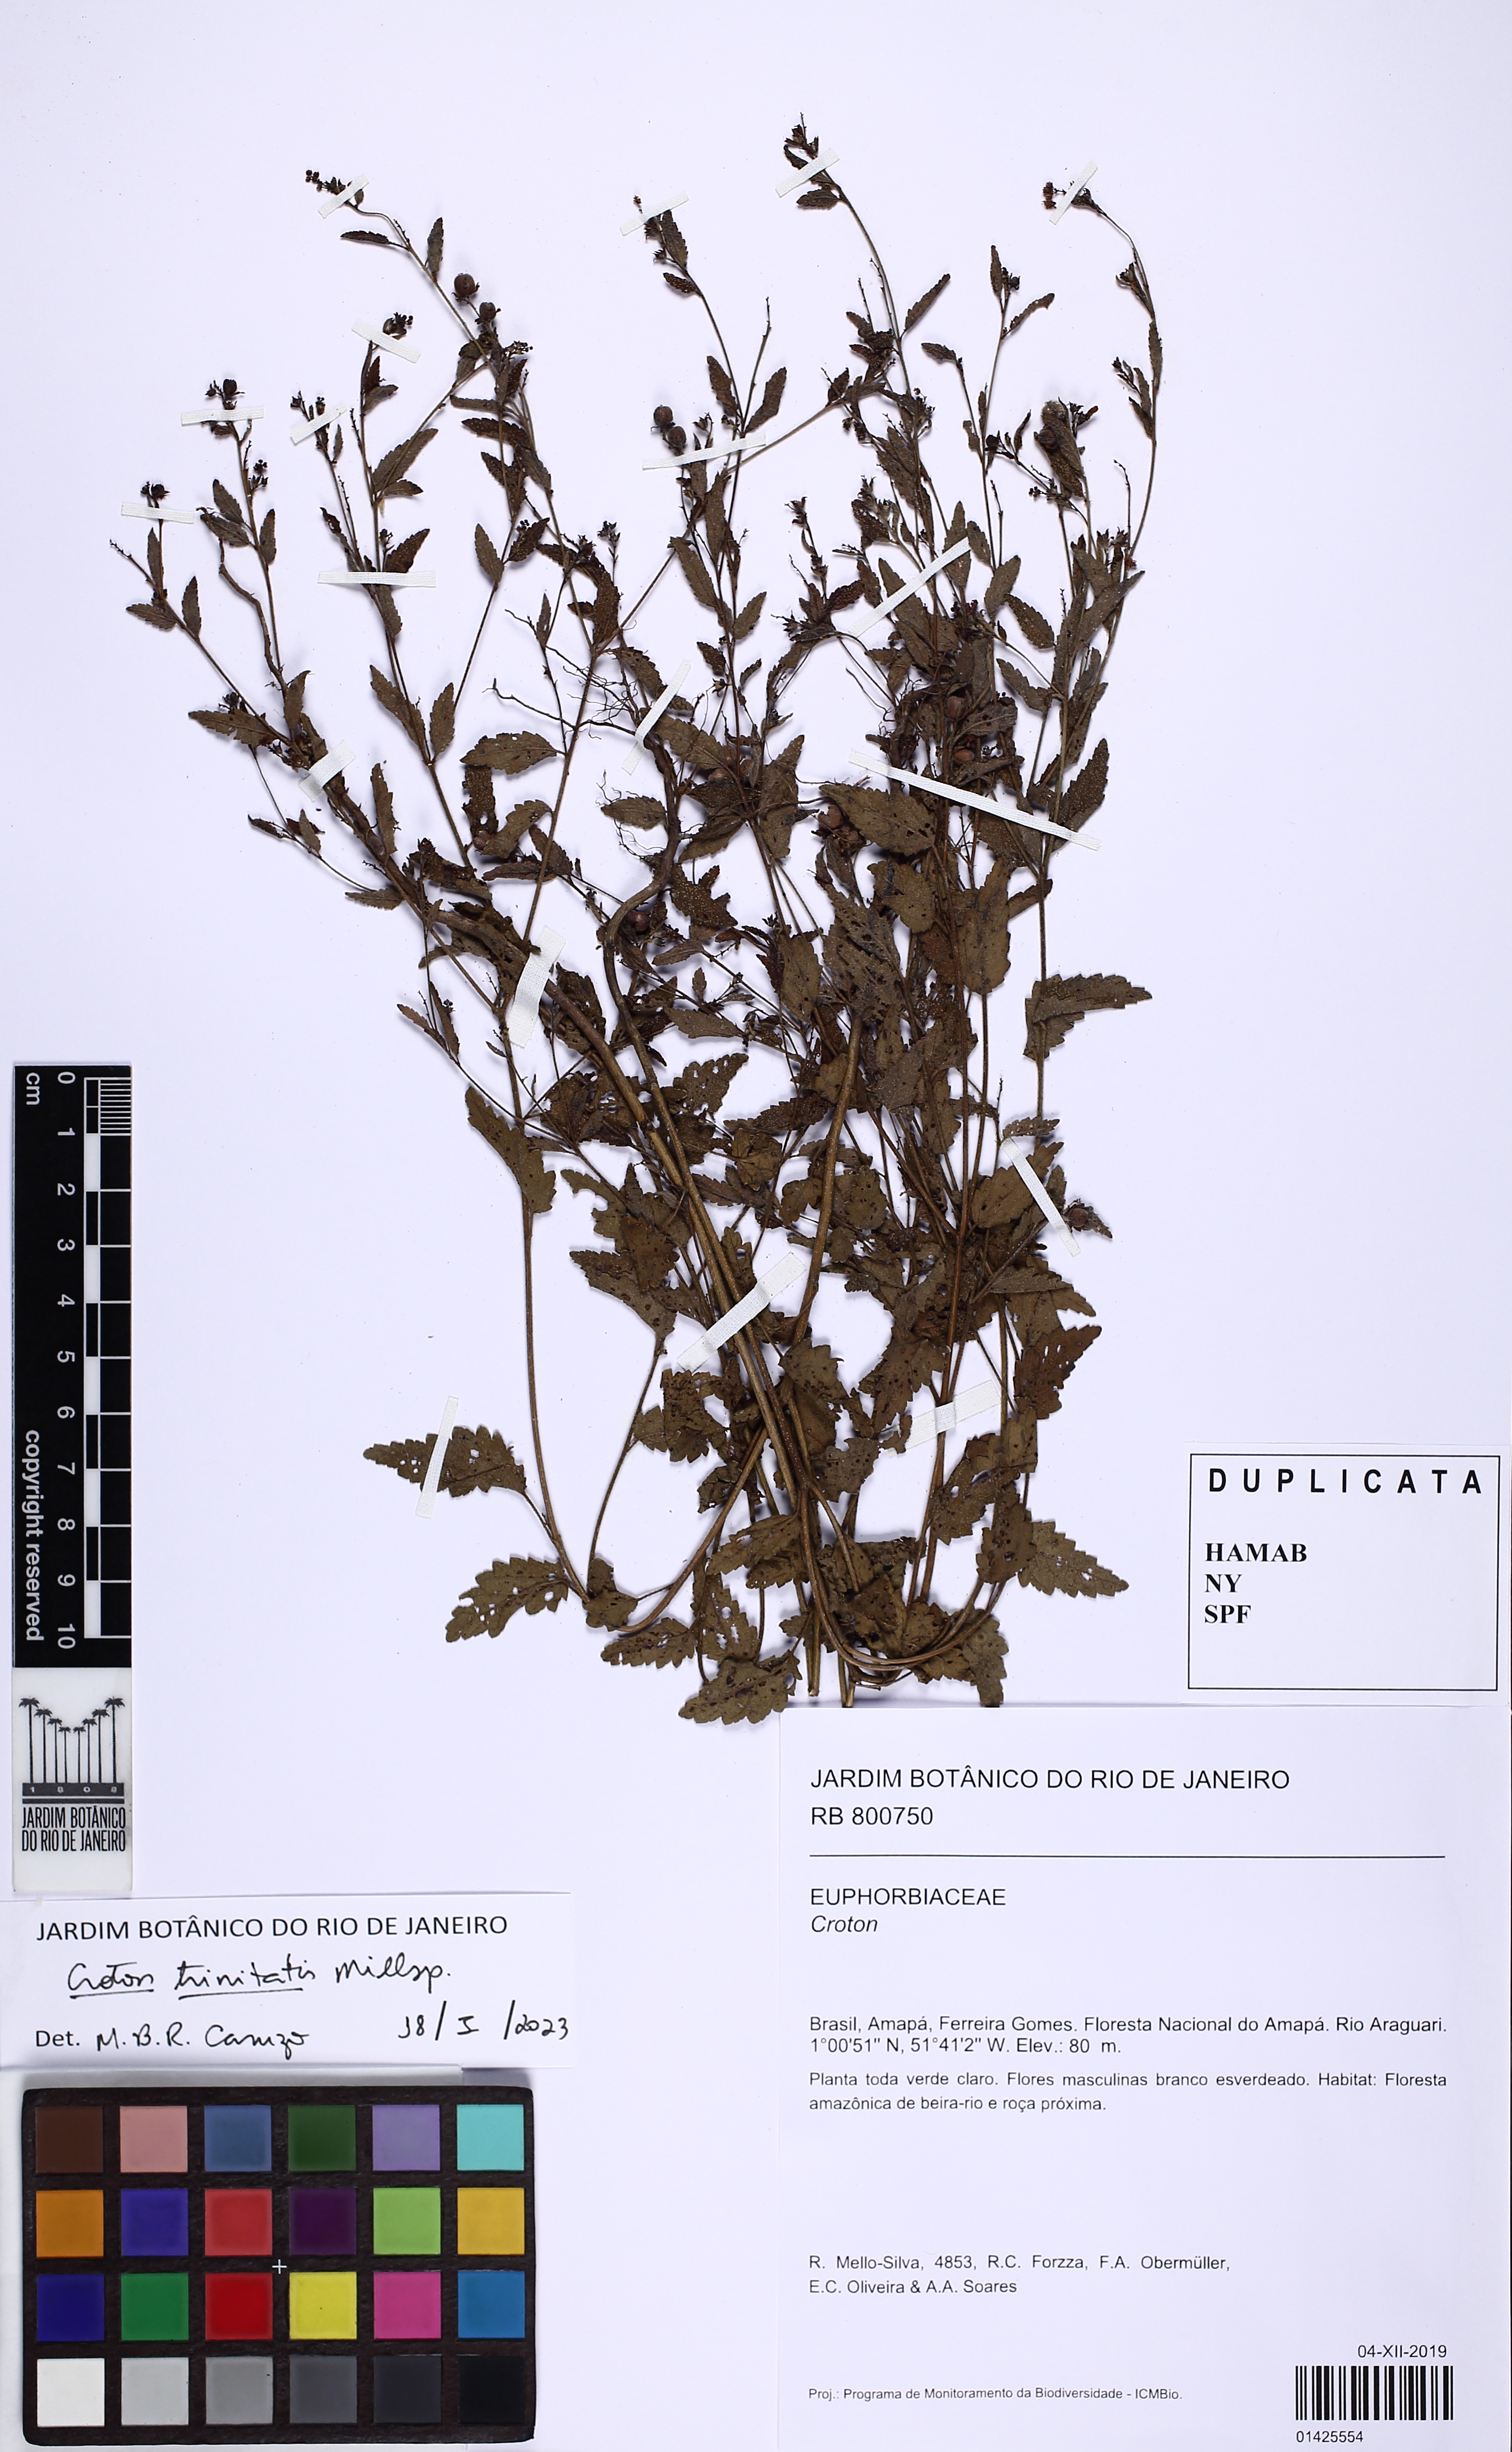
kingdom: Plantae
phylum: Tracheophyta
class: Magnoliopsida
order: Malpighiales
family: Euphorbiaceae
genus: Croton
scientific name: Croton trinitatis
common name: Roadside croton
